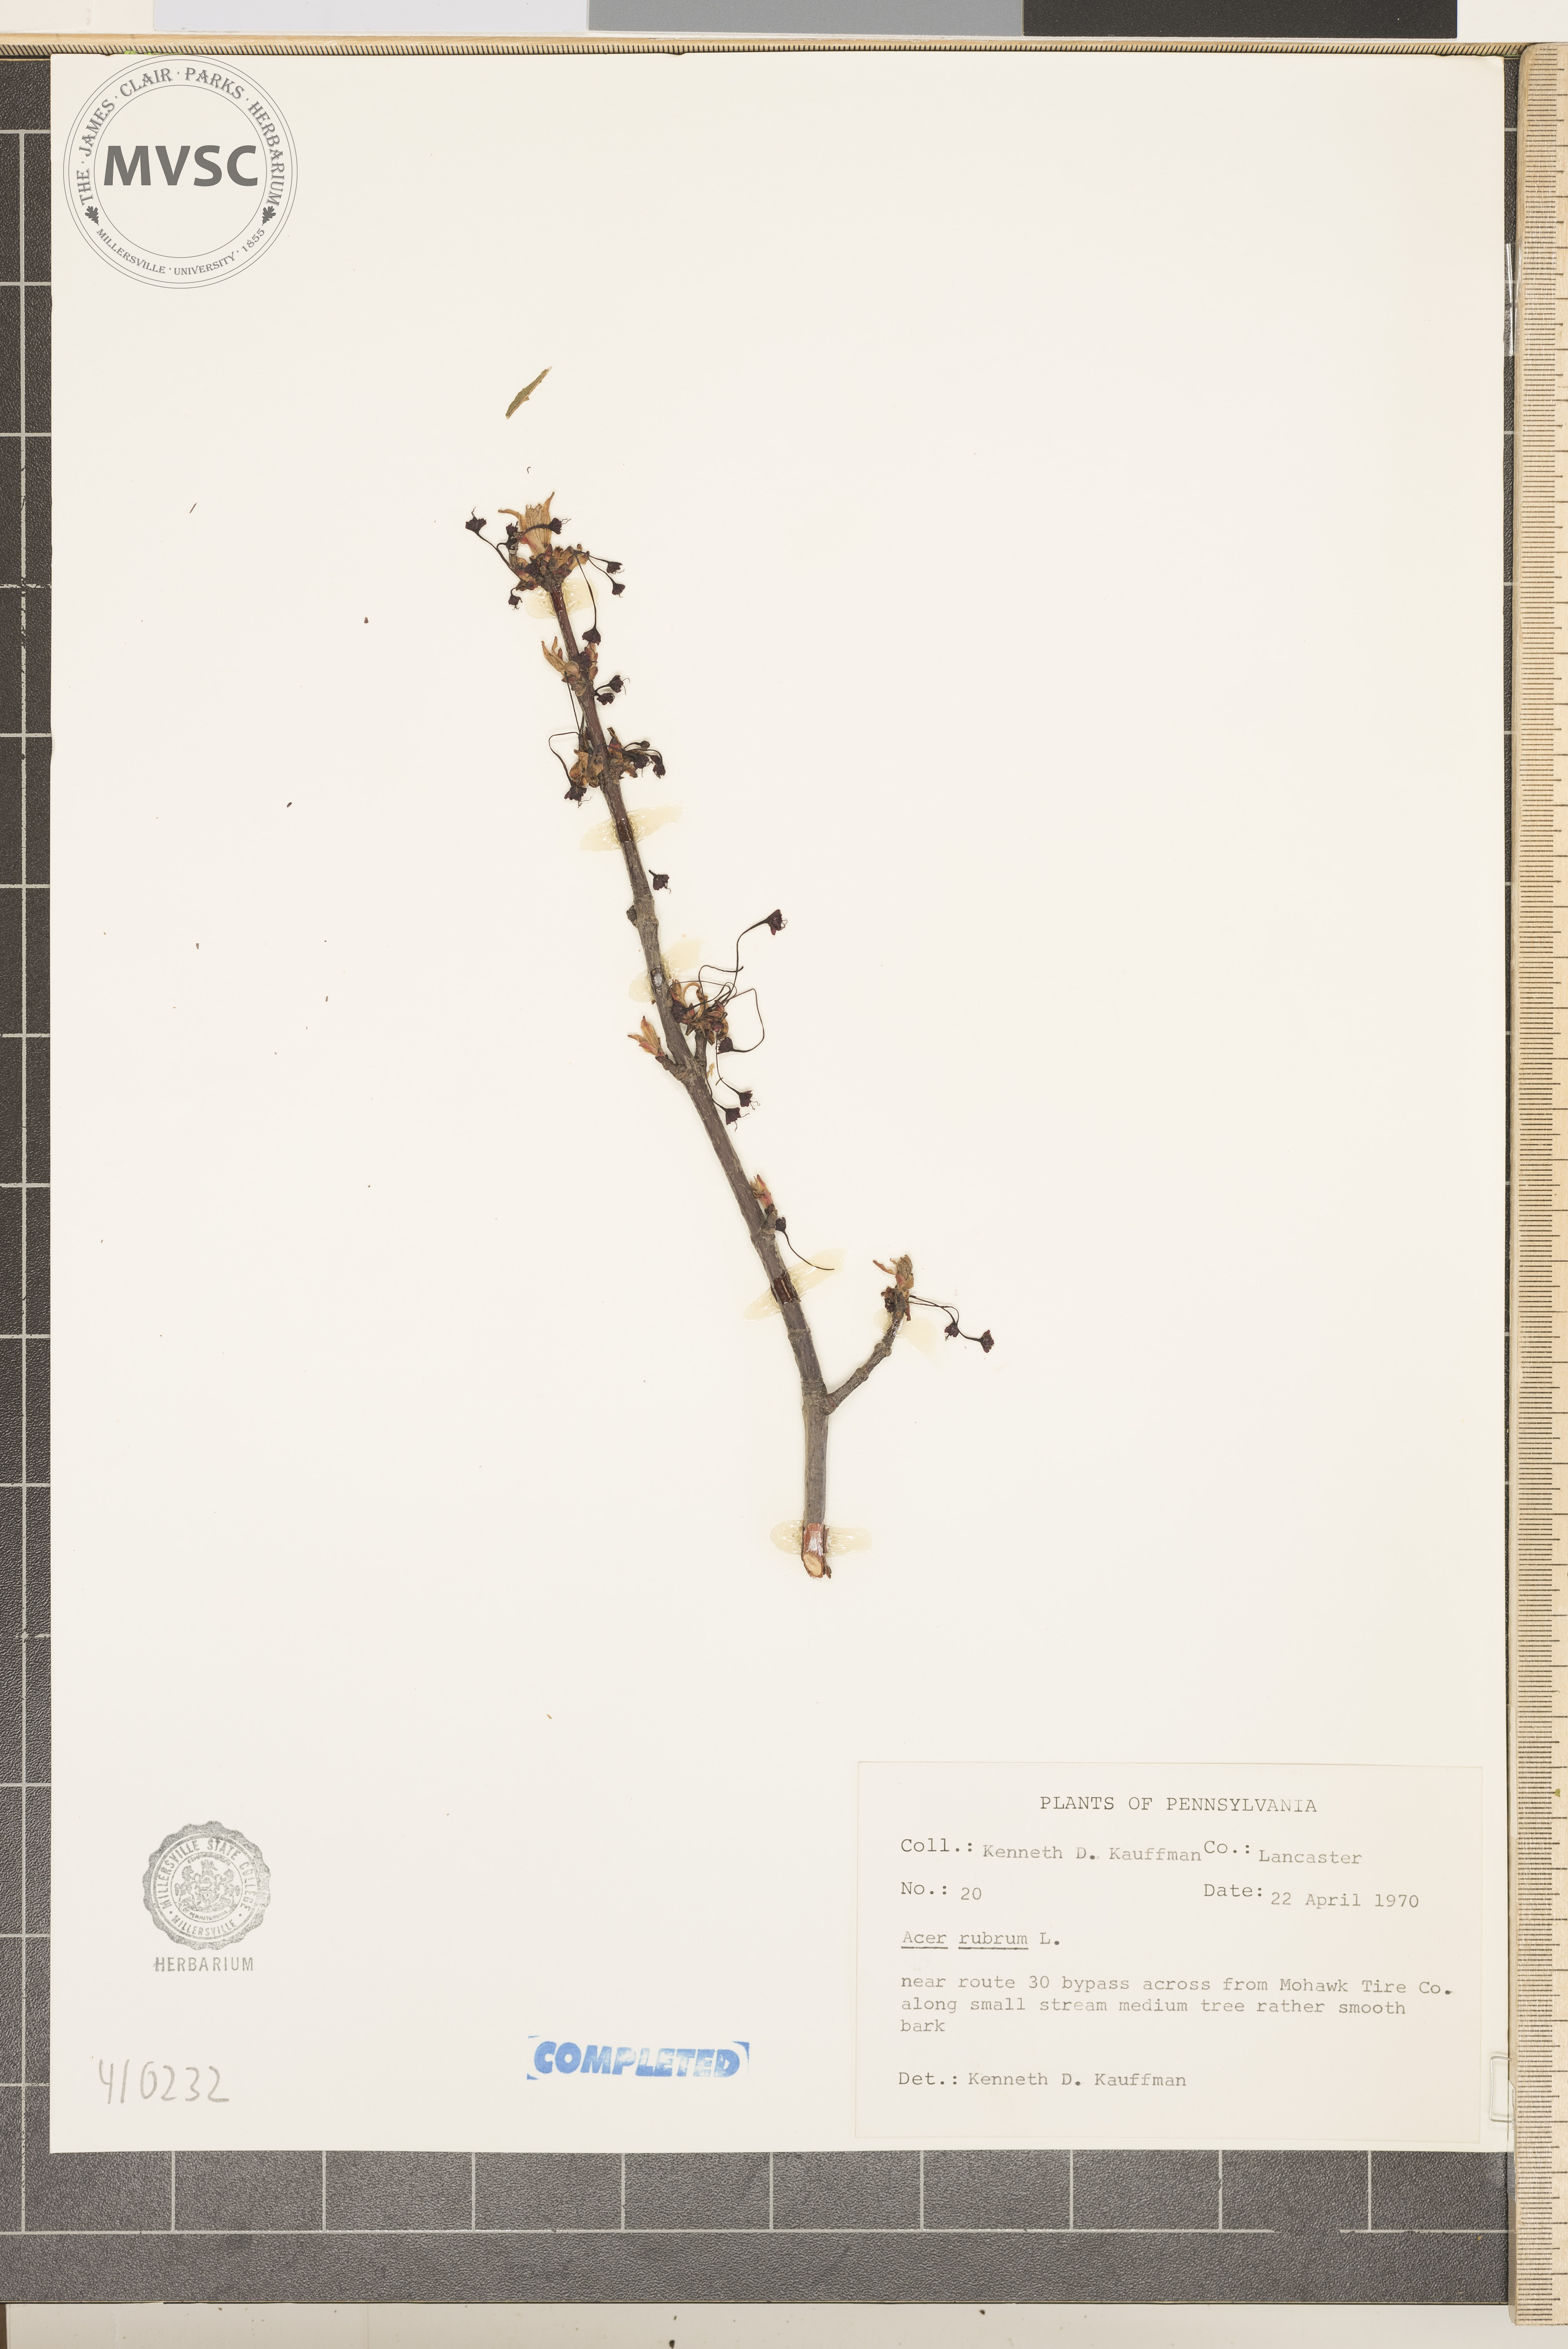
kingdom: Plantae
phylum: Tracheophyta
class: Magnoliopsida
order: Sapindales
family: Sapindaceae
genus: Acer
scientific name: Acer rubrum
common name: Red maple
